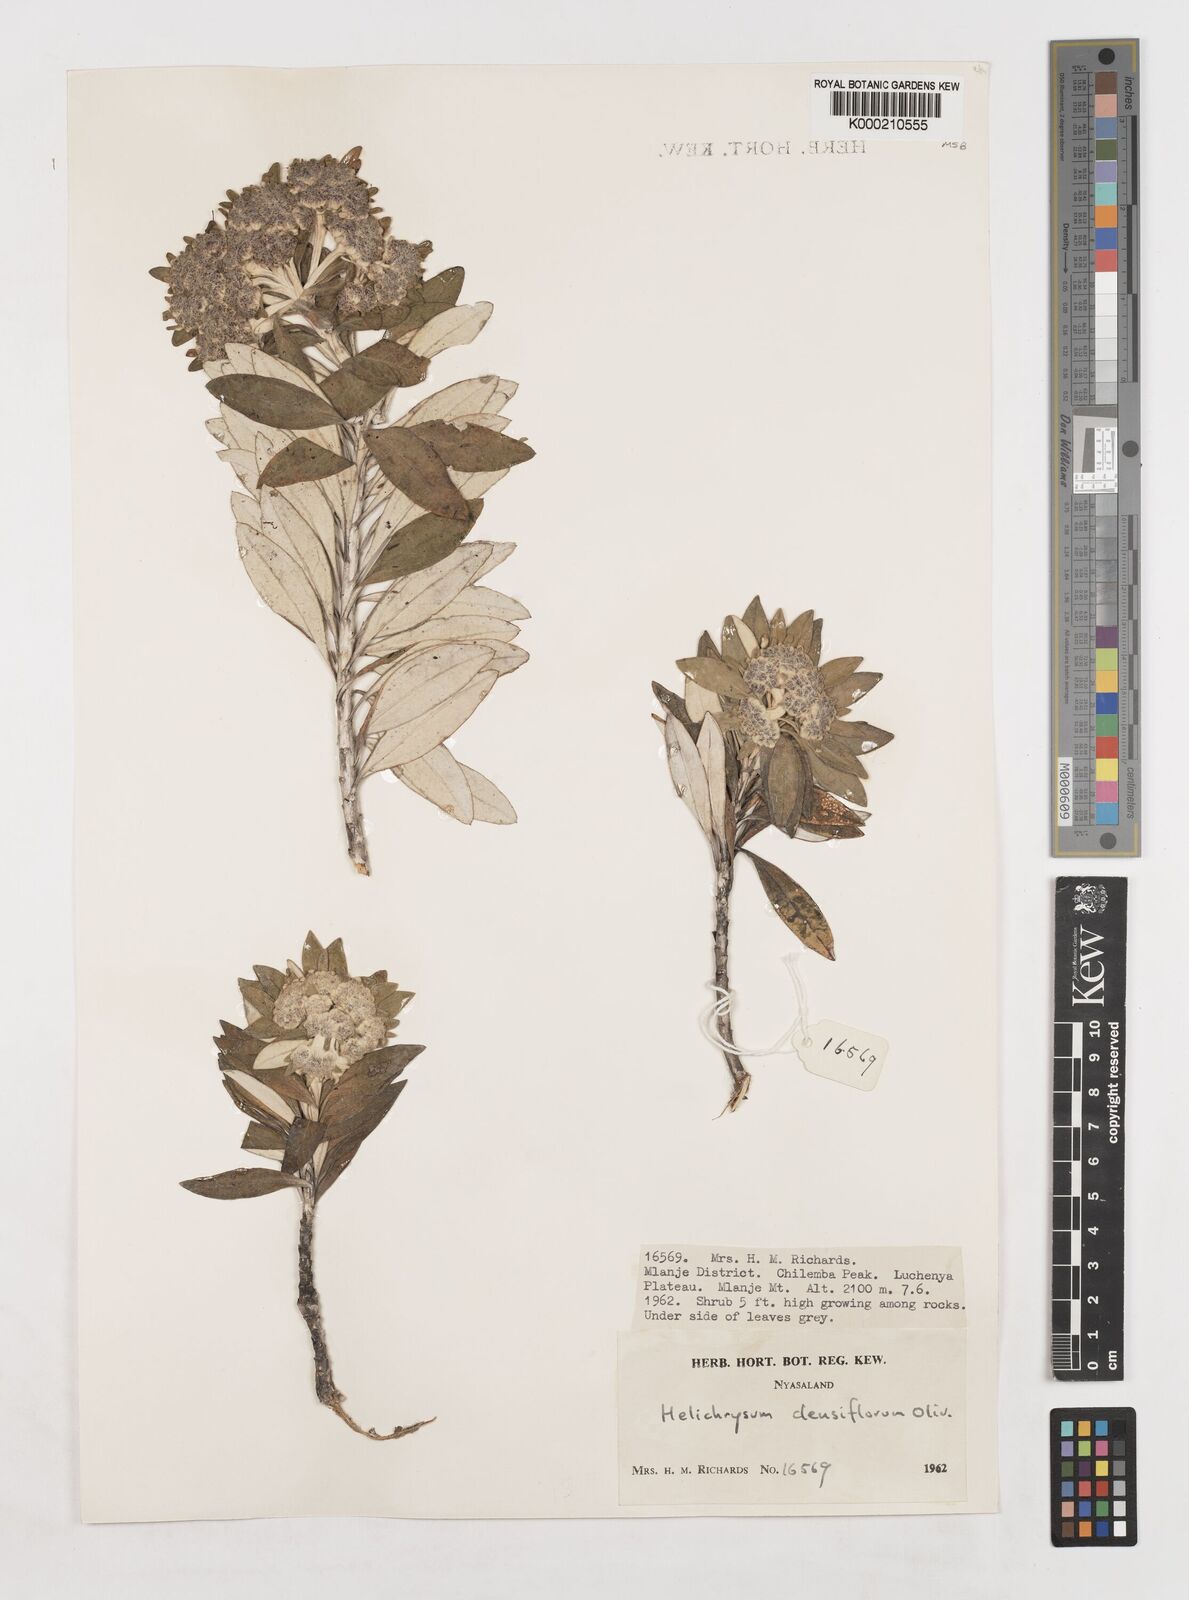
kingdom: Plantae
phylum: Tracheophyta
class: Magnoliopsida
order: Asterales
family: Asteraceae
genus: Helichrysum
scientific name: Helichrysum densiflorum
